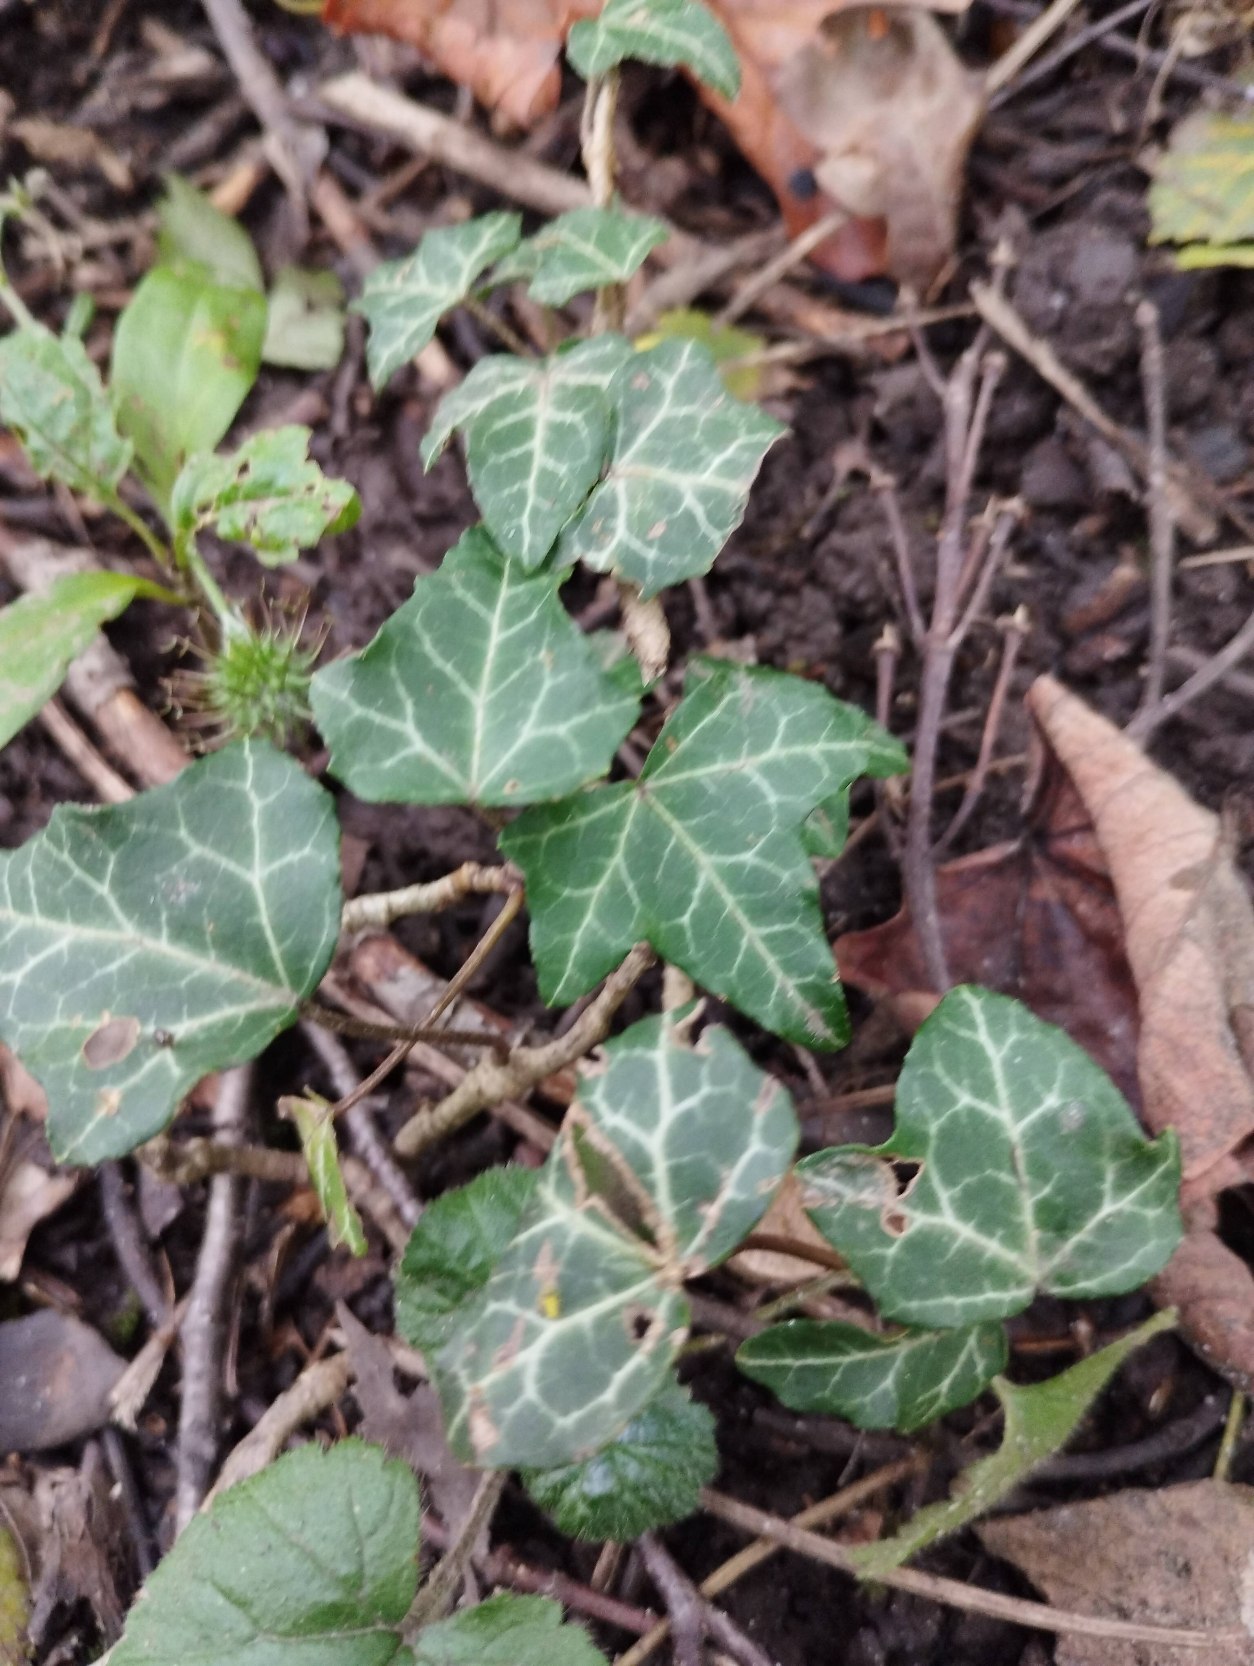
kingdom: Plantae
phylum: Tracheophyta
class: Magnoliopsida
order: Apiales
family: Araliaceae
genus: Hedera
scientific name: Hedera helix
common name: Vedbend
